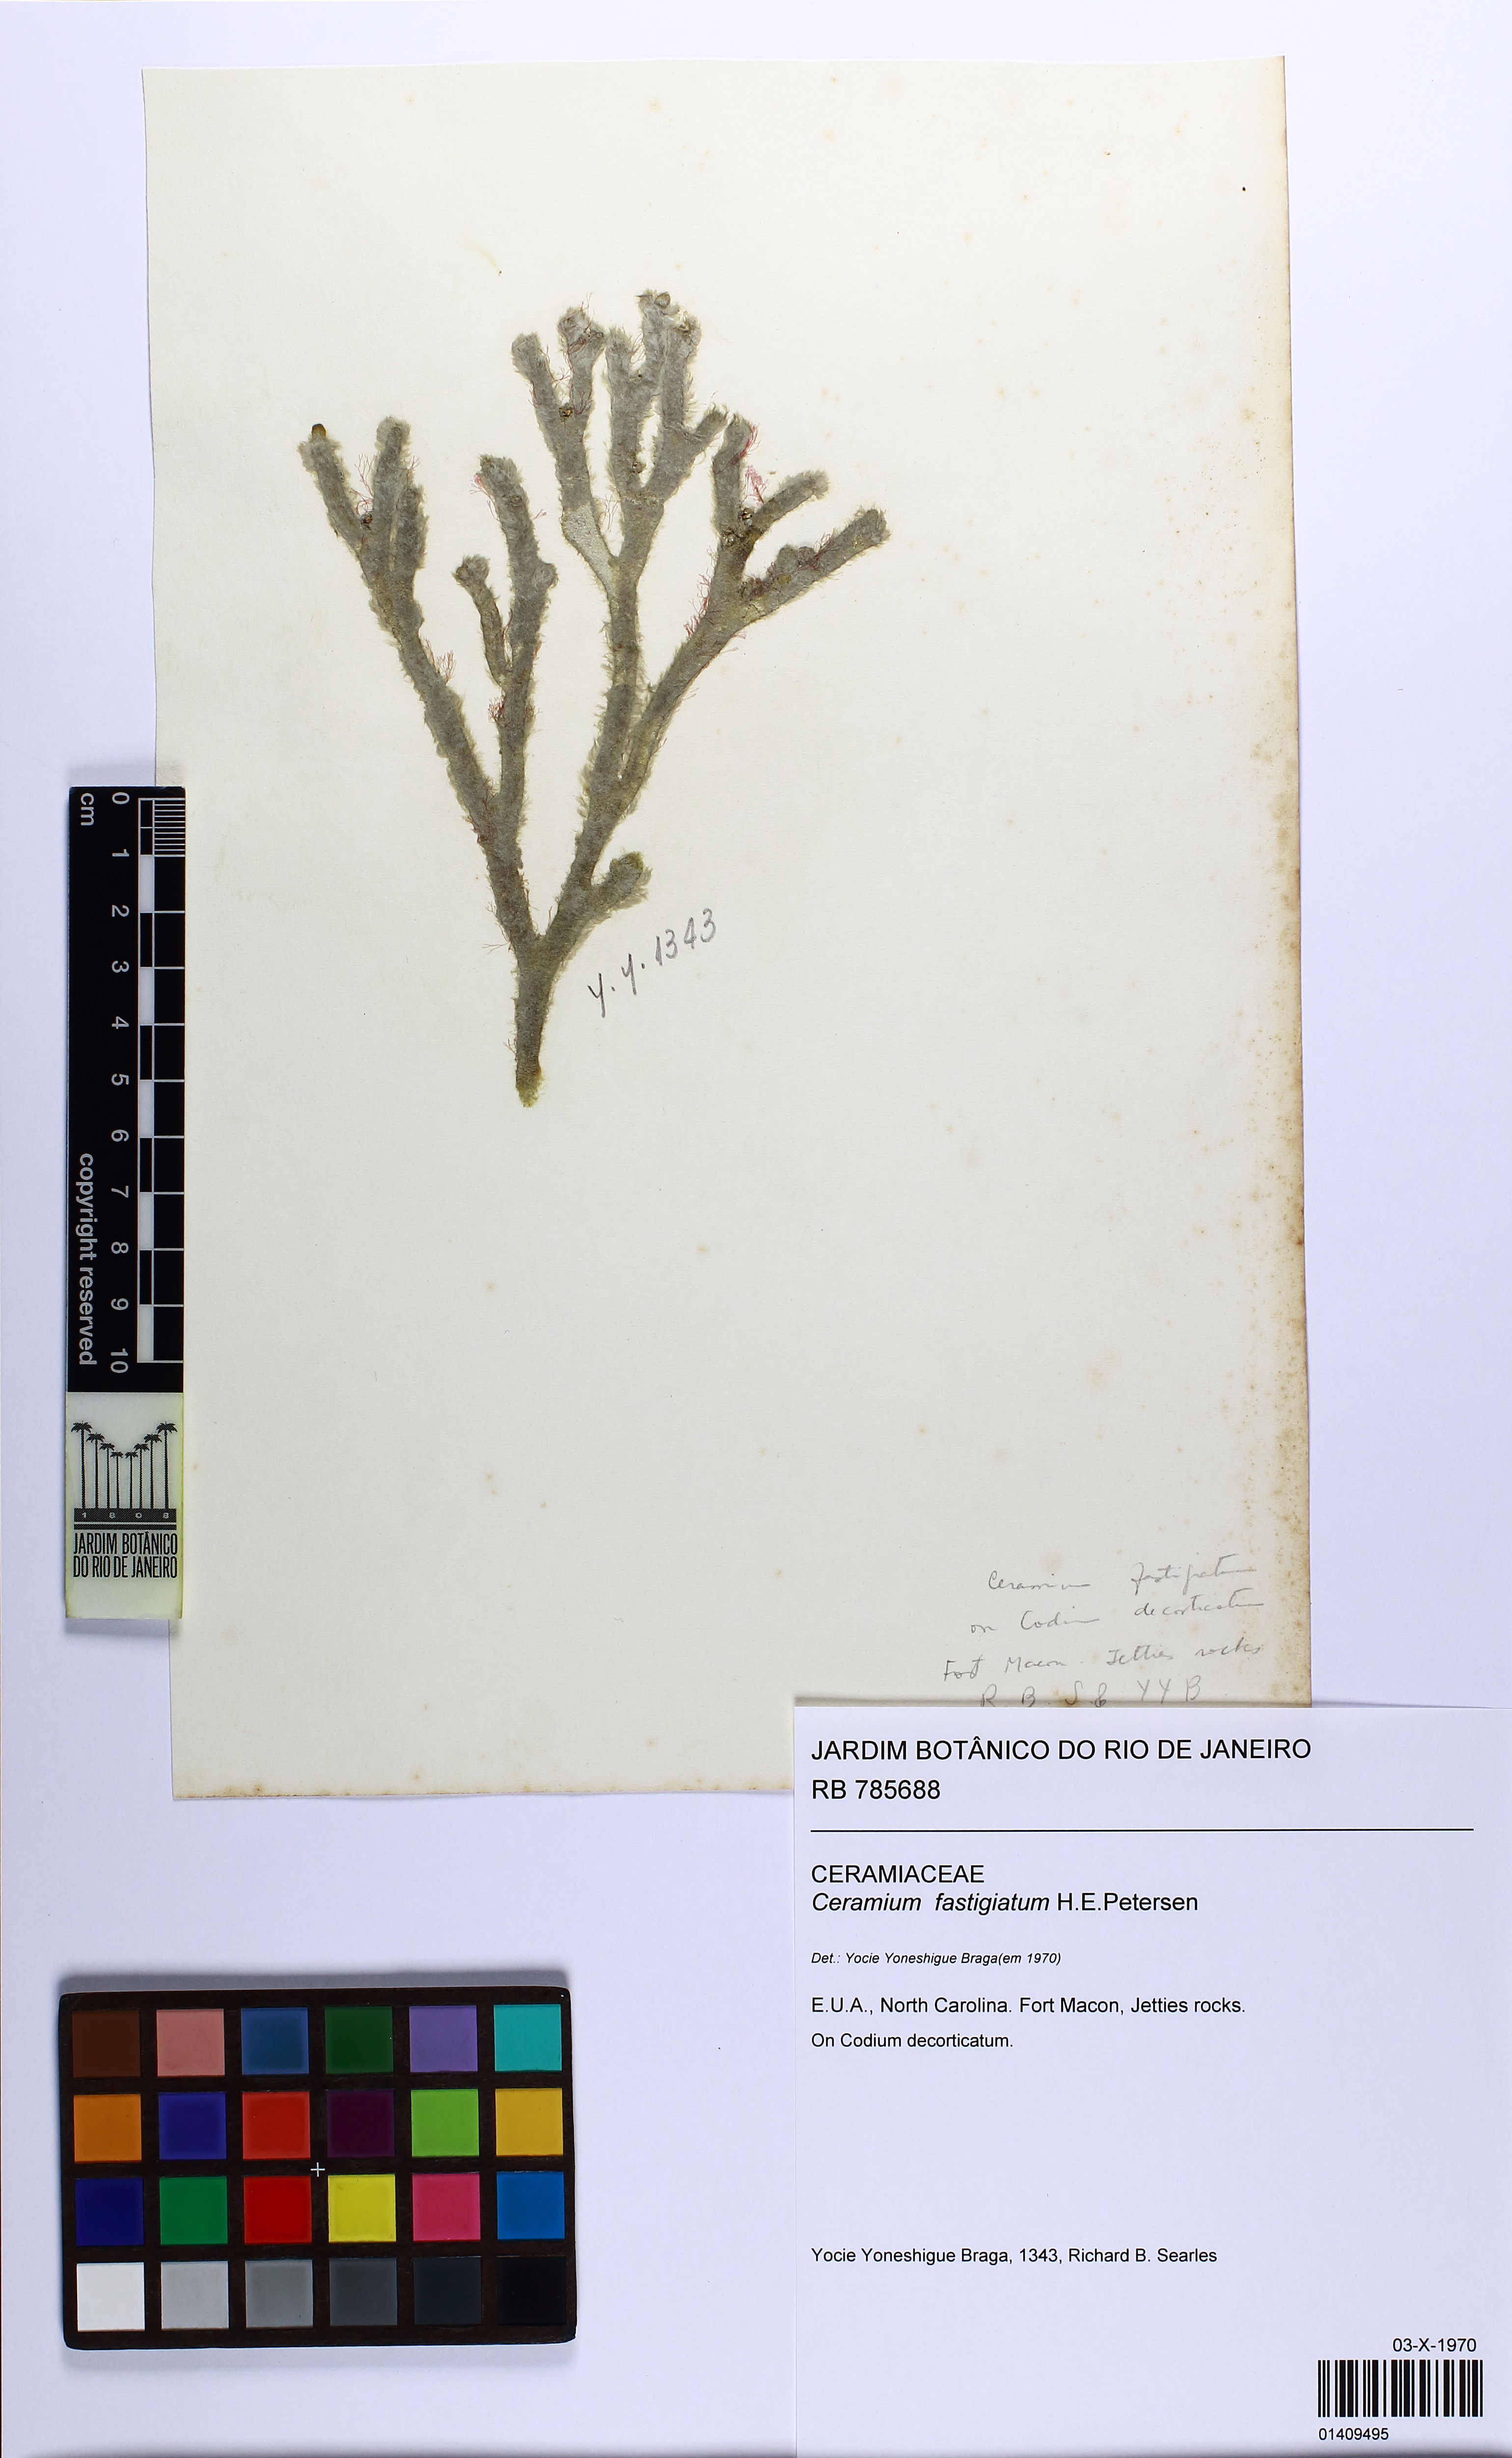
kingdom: Plantae
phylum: Rhodophyta
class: Florideophyceae
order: Ceramiales
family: Ceramiaceae
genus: Ceramium
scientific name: Ceramium cimbricum
